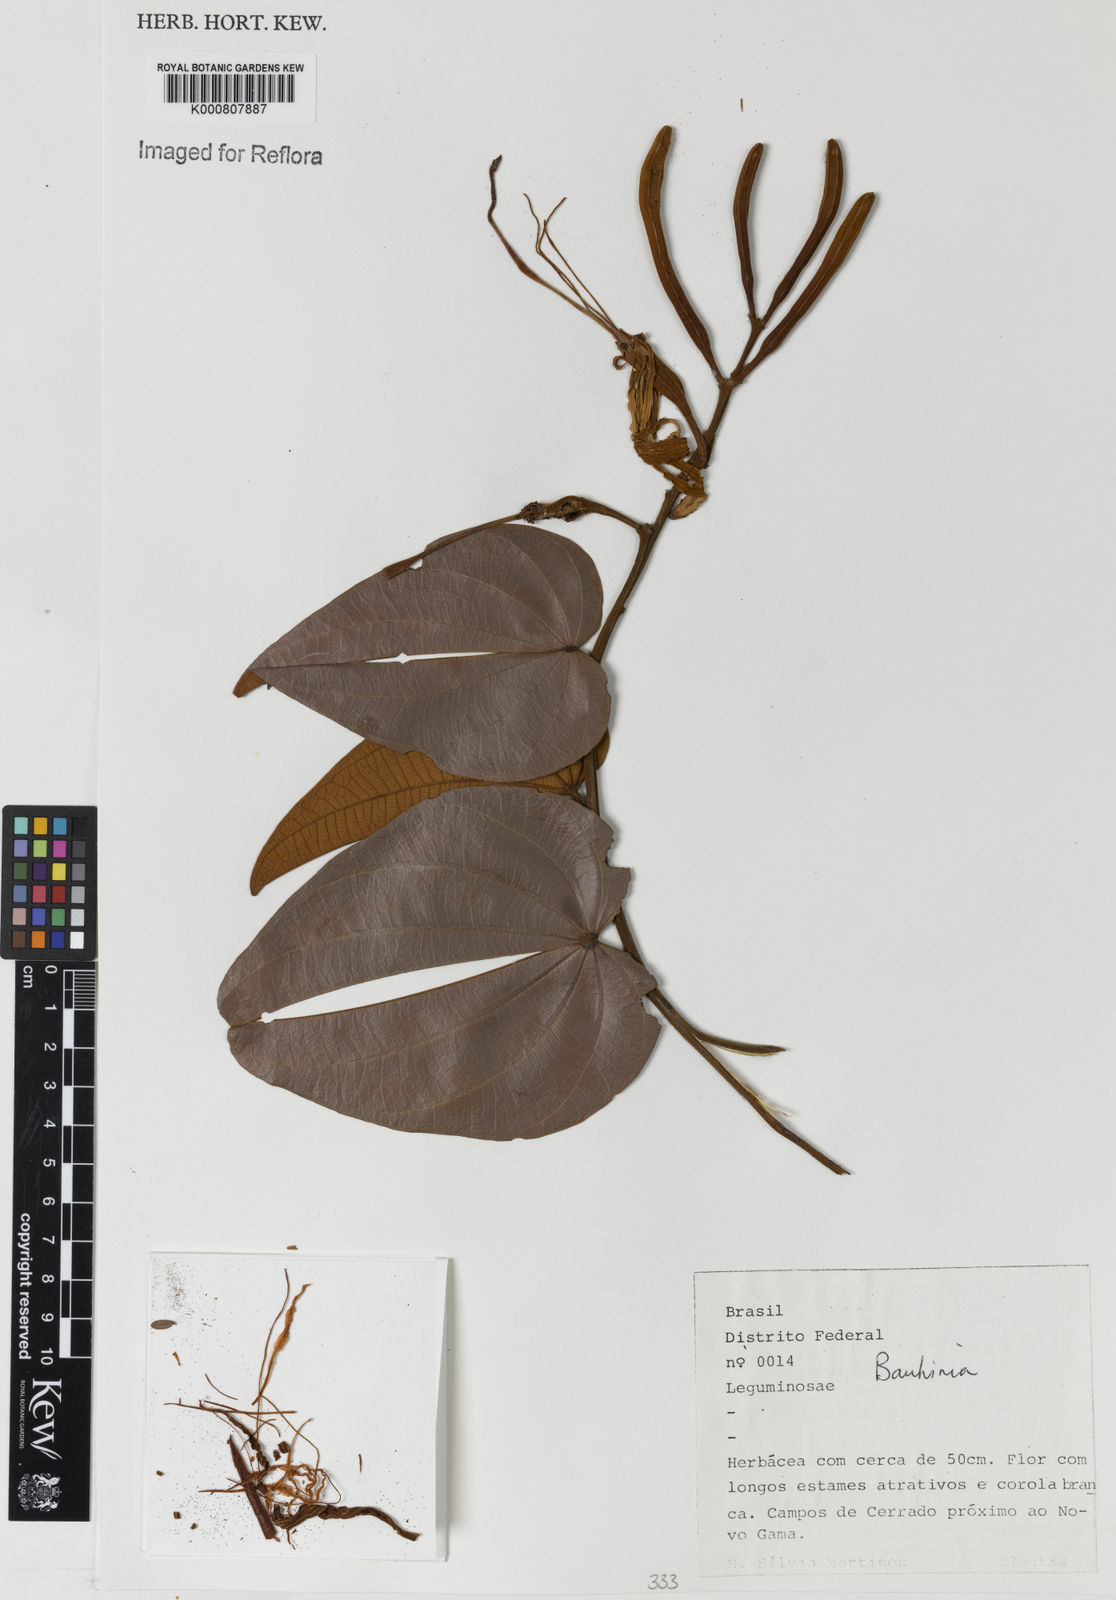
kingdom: Plantae
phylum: Tracheophyta
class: Magnoliopsida
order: Fabales
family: Fabaceae
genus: Bauhinia
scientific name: Bauhinia
